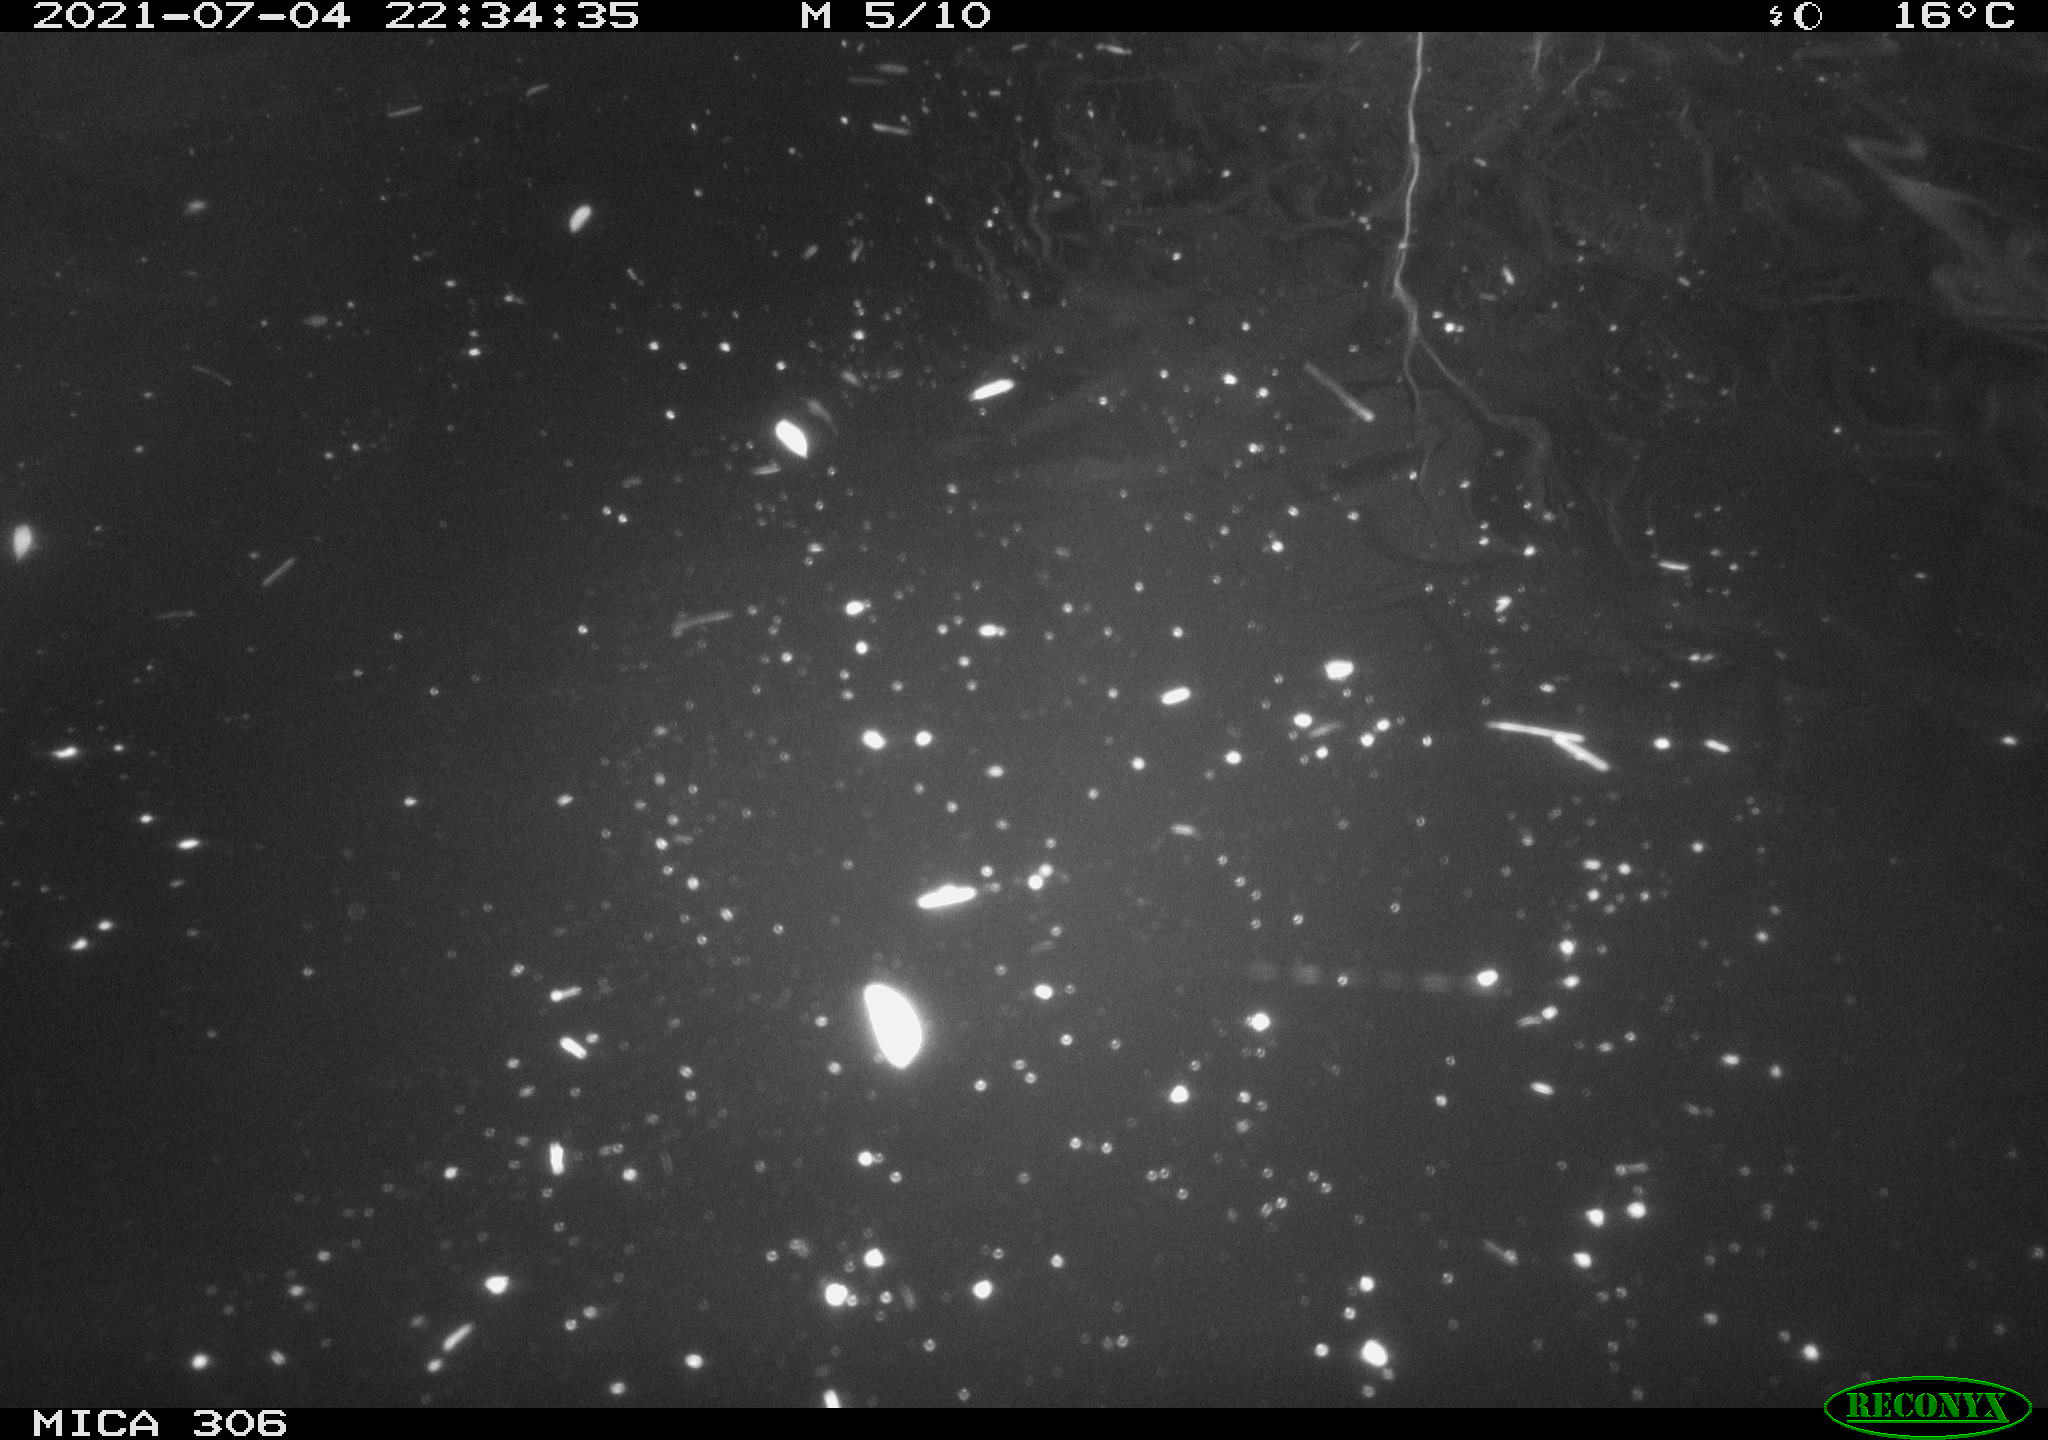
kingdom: Animalia
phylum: Chordata
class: Mammalia
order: Rodentia
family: Cricetidae
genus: Ondatra
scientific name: Ondatra zibethicus
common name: Muskrat
